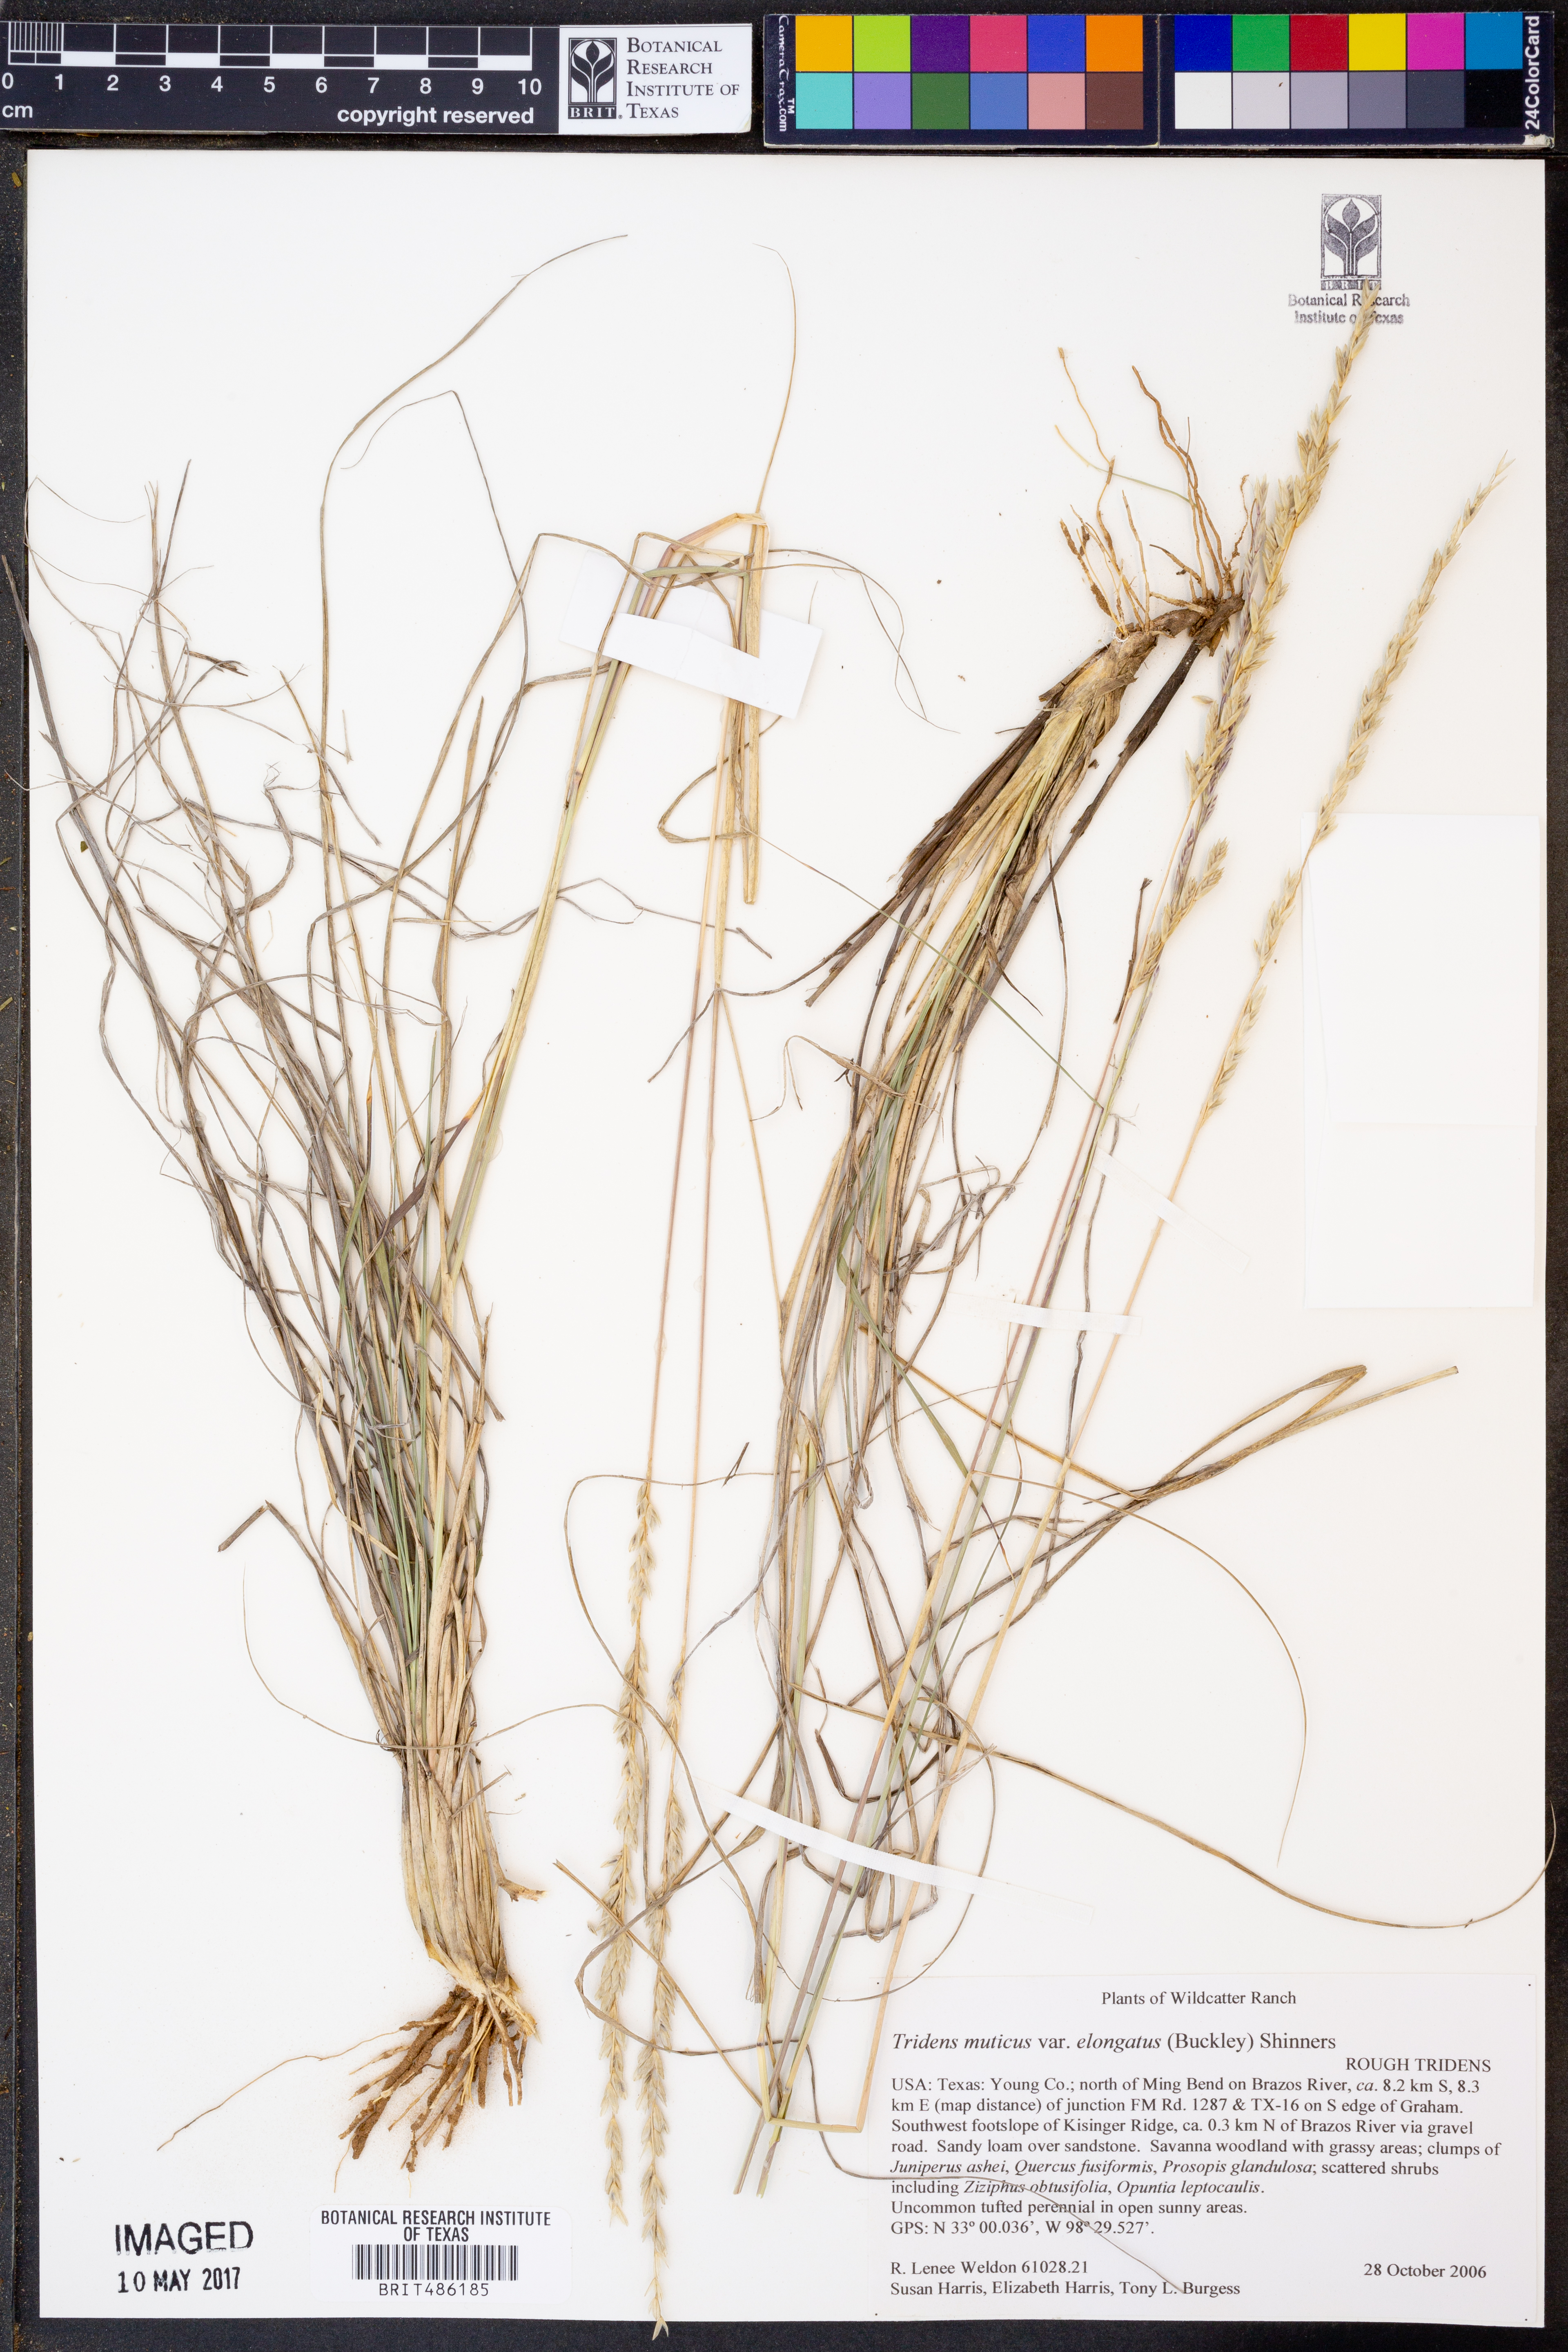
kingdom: Plantae
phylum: Tracheophyta
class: Liliopsida
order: Poales
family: Poaceae
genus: Tridentopsis
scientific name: Tridentopsis mutica
